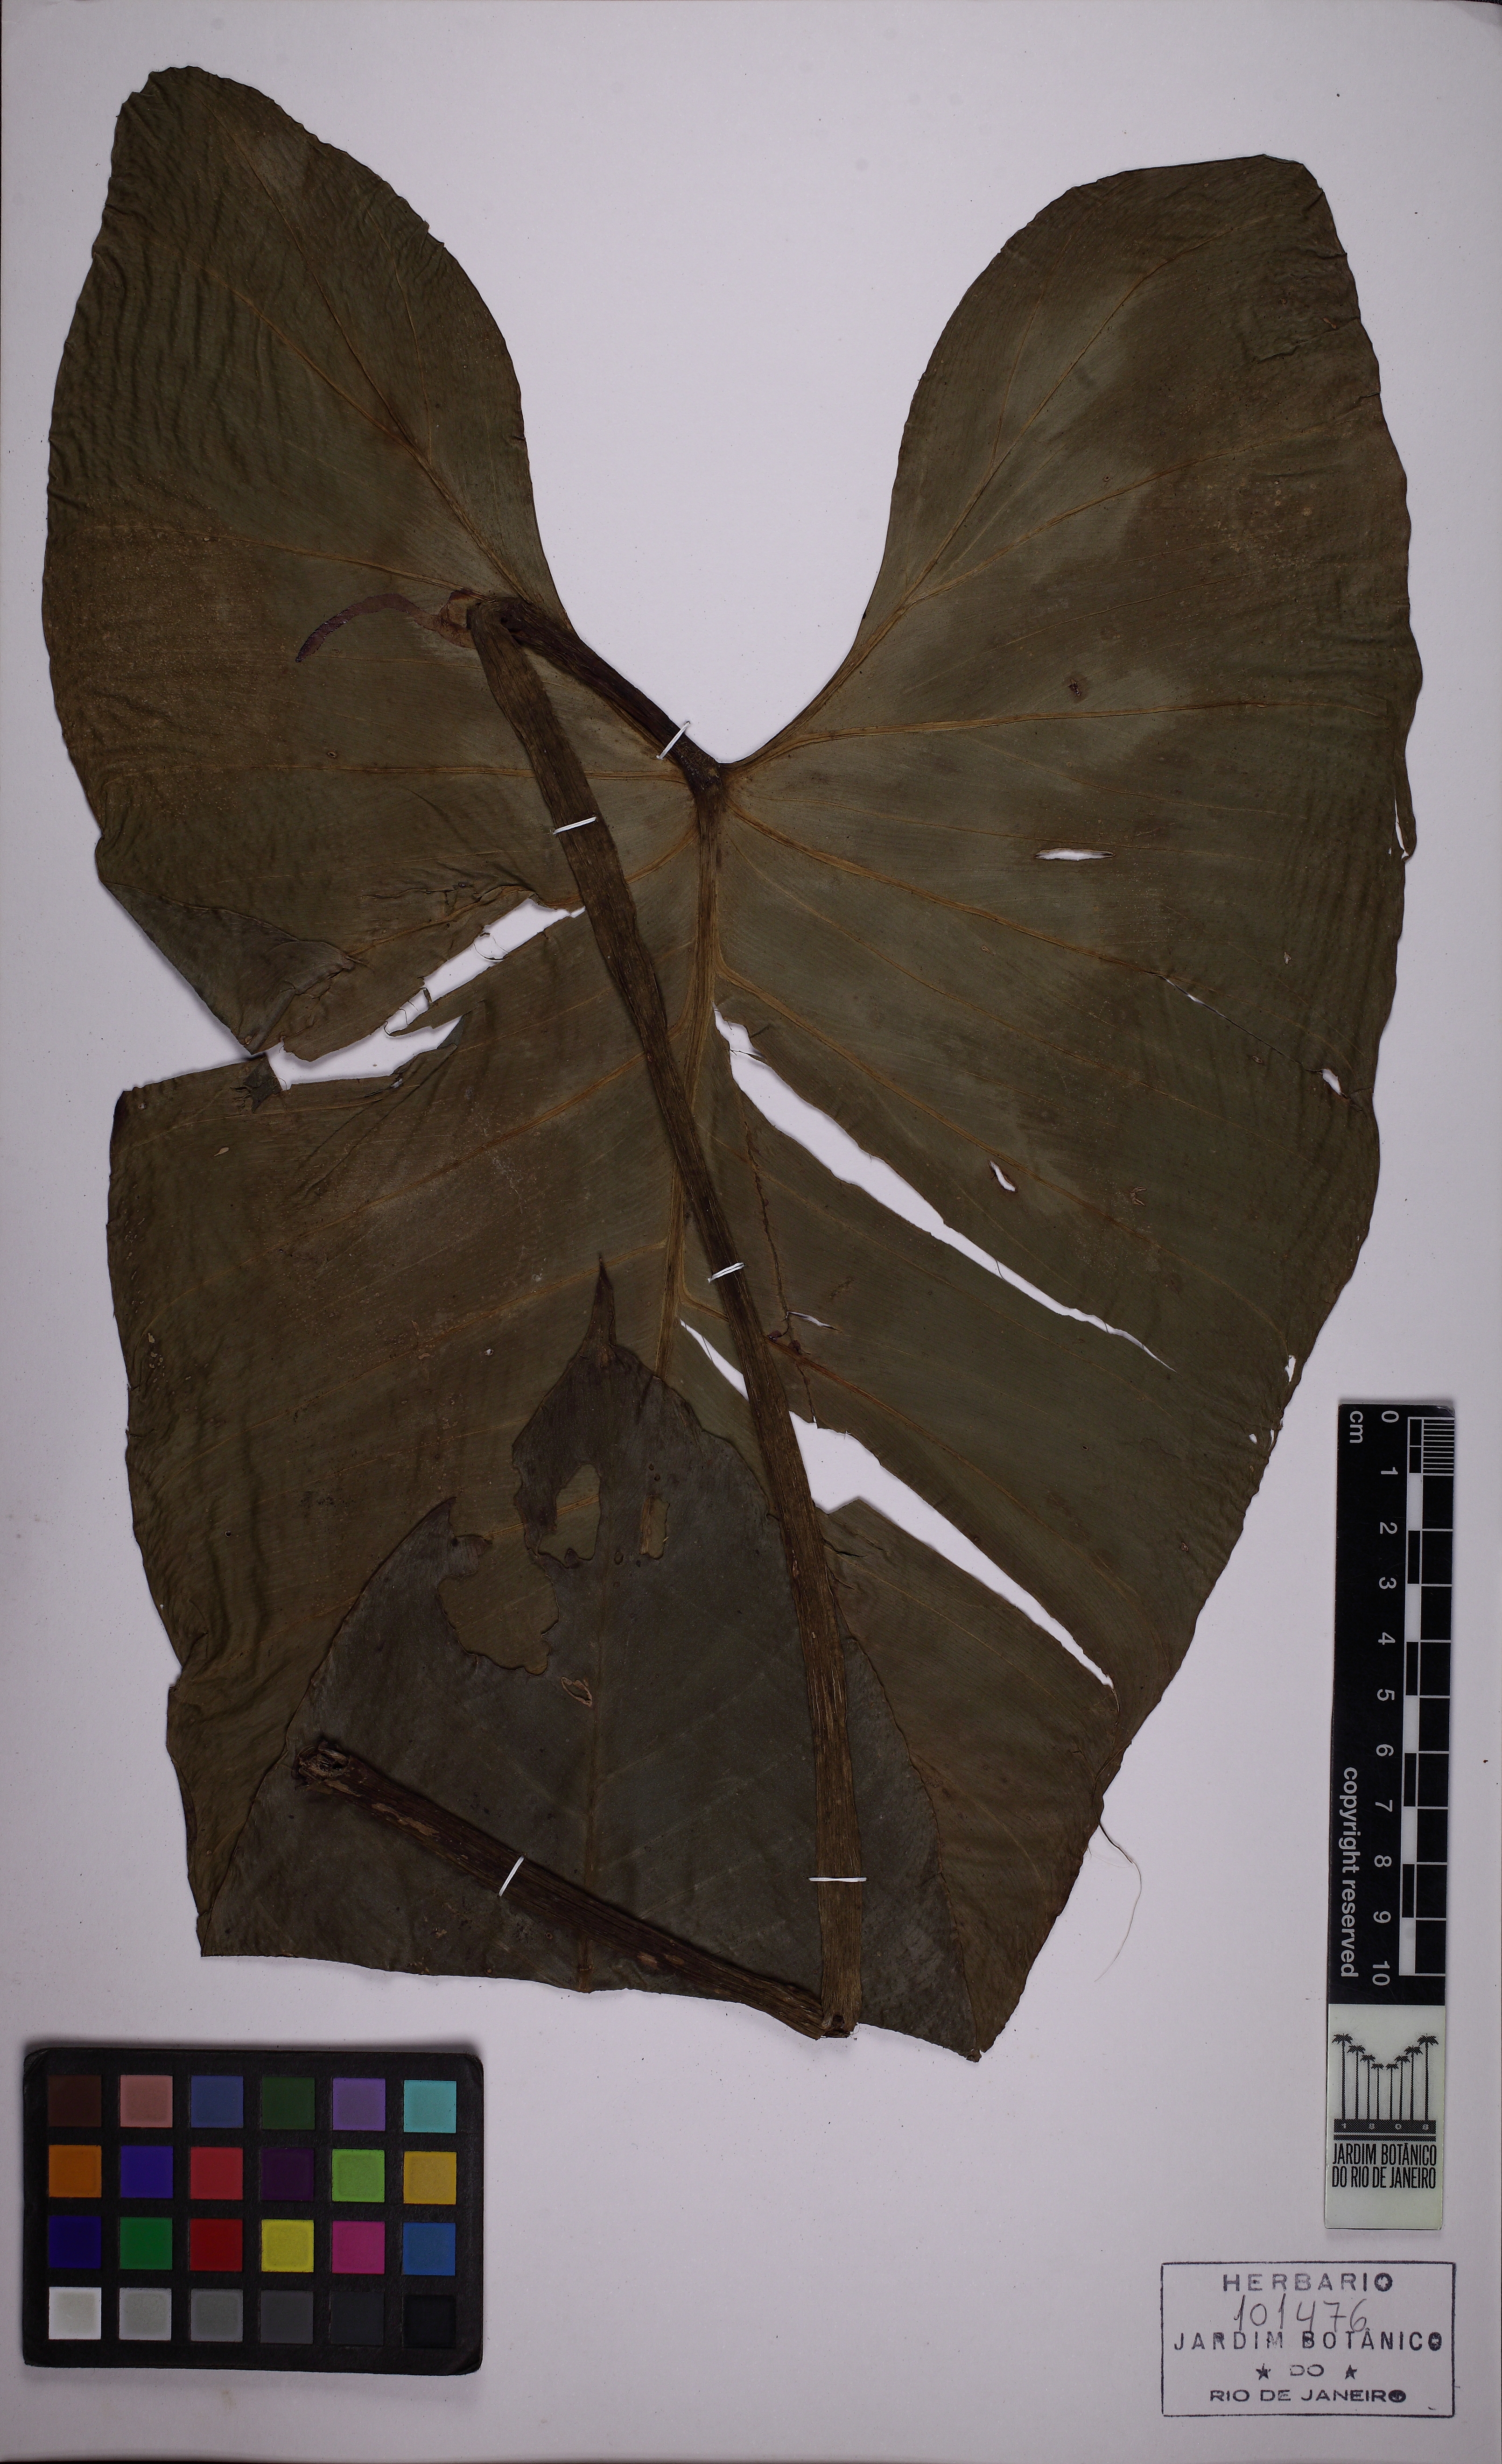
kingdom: Plantae
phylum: Tracheophyta
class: Liliopsida
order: Alismatales
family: Araceae
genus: Philodendron
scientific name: Philodendron megalophyllum
